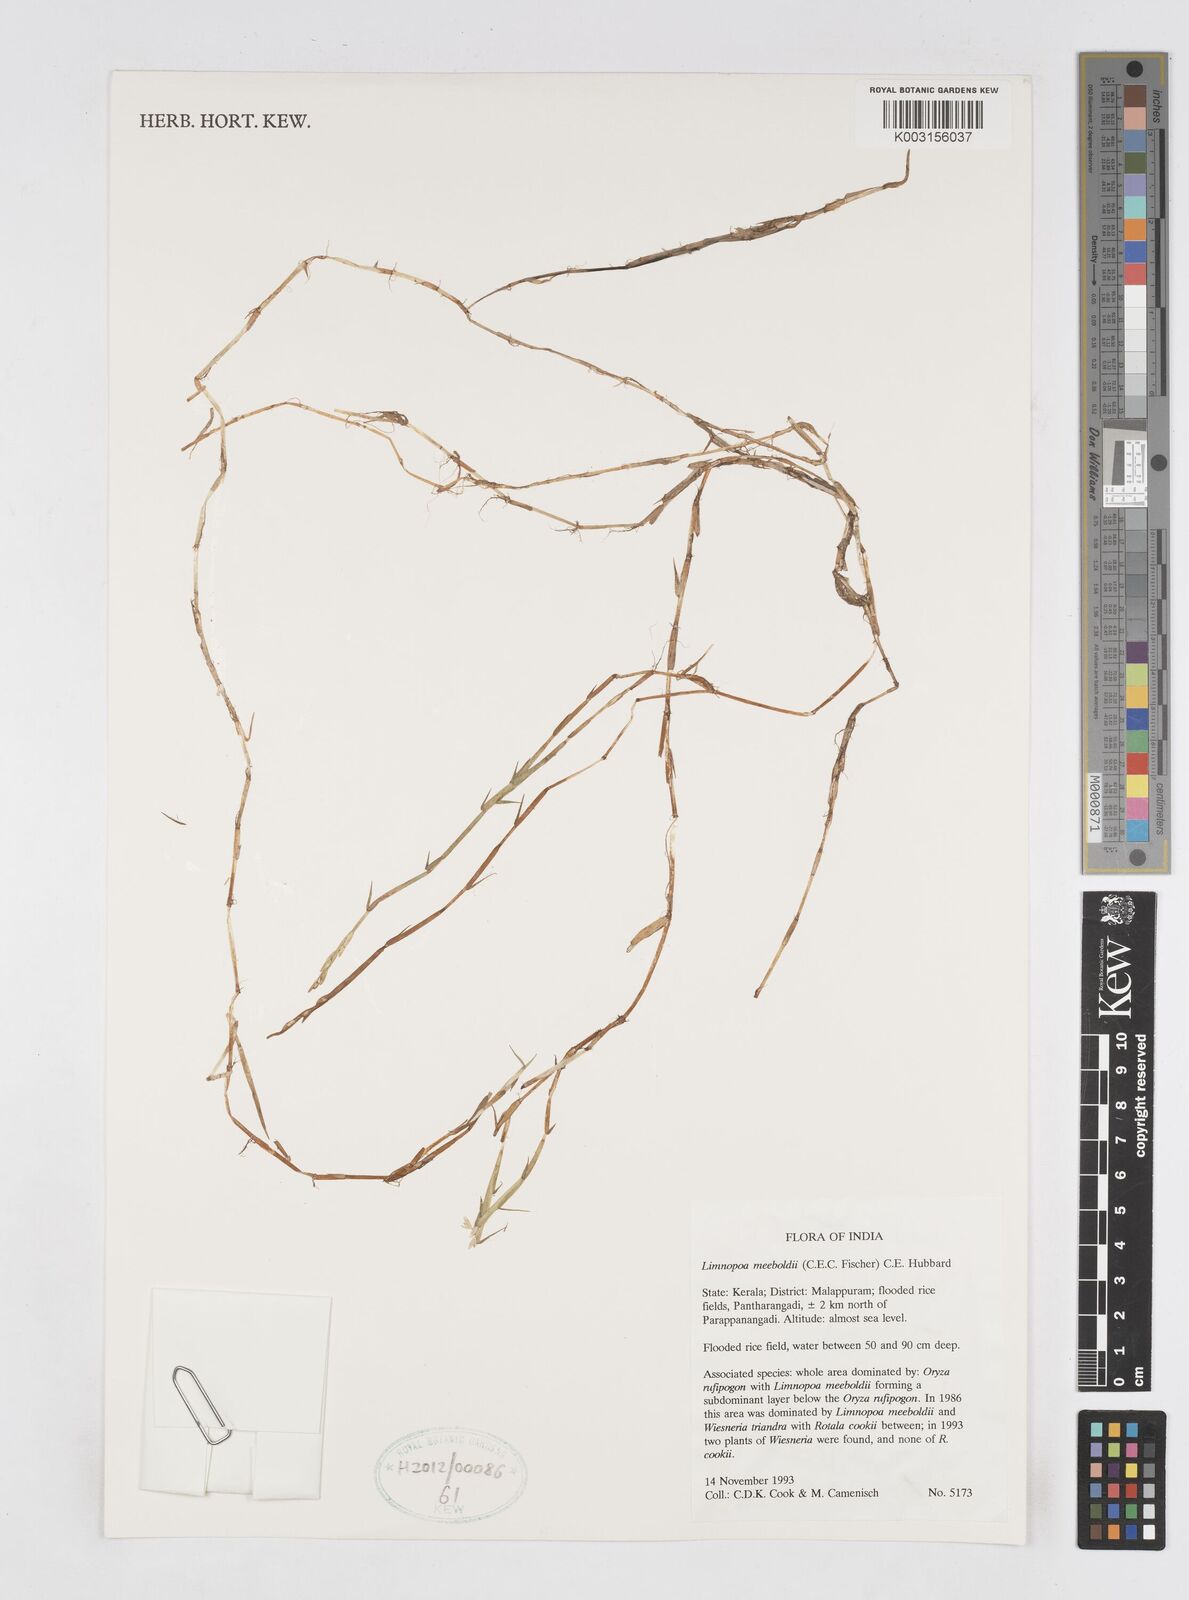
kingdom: Plantae
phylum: Tracheophyta
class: Liliopsida
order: Poales
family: Poaceae
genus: Limnopoa
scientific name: Limnopoa meeboldii
